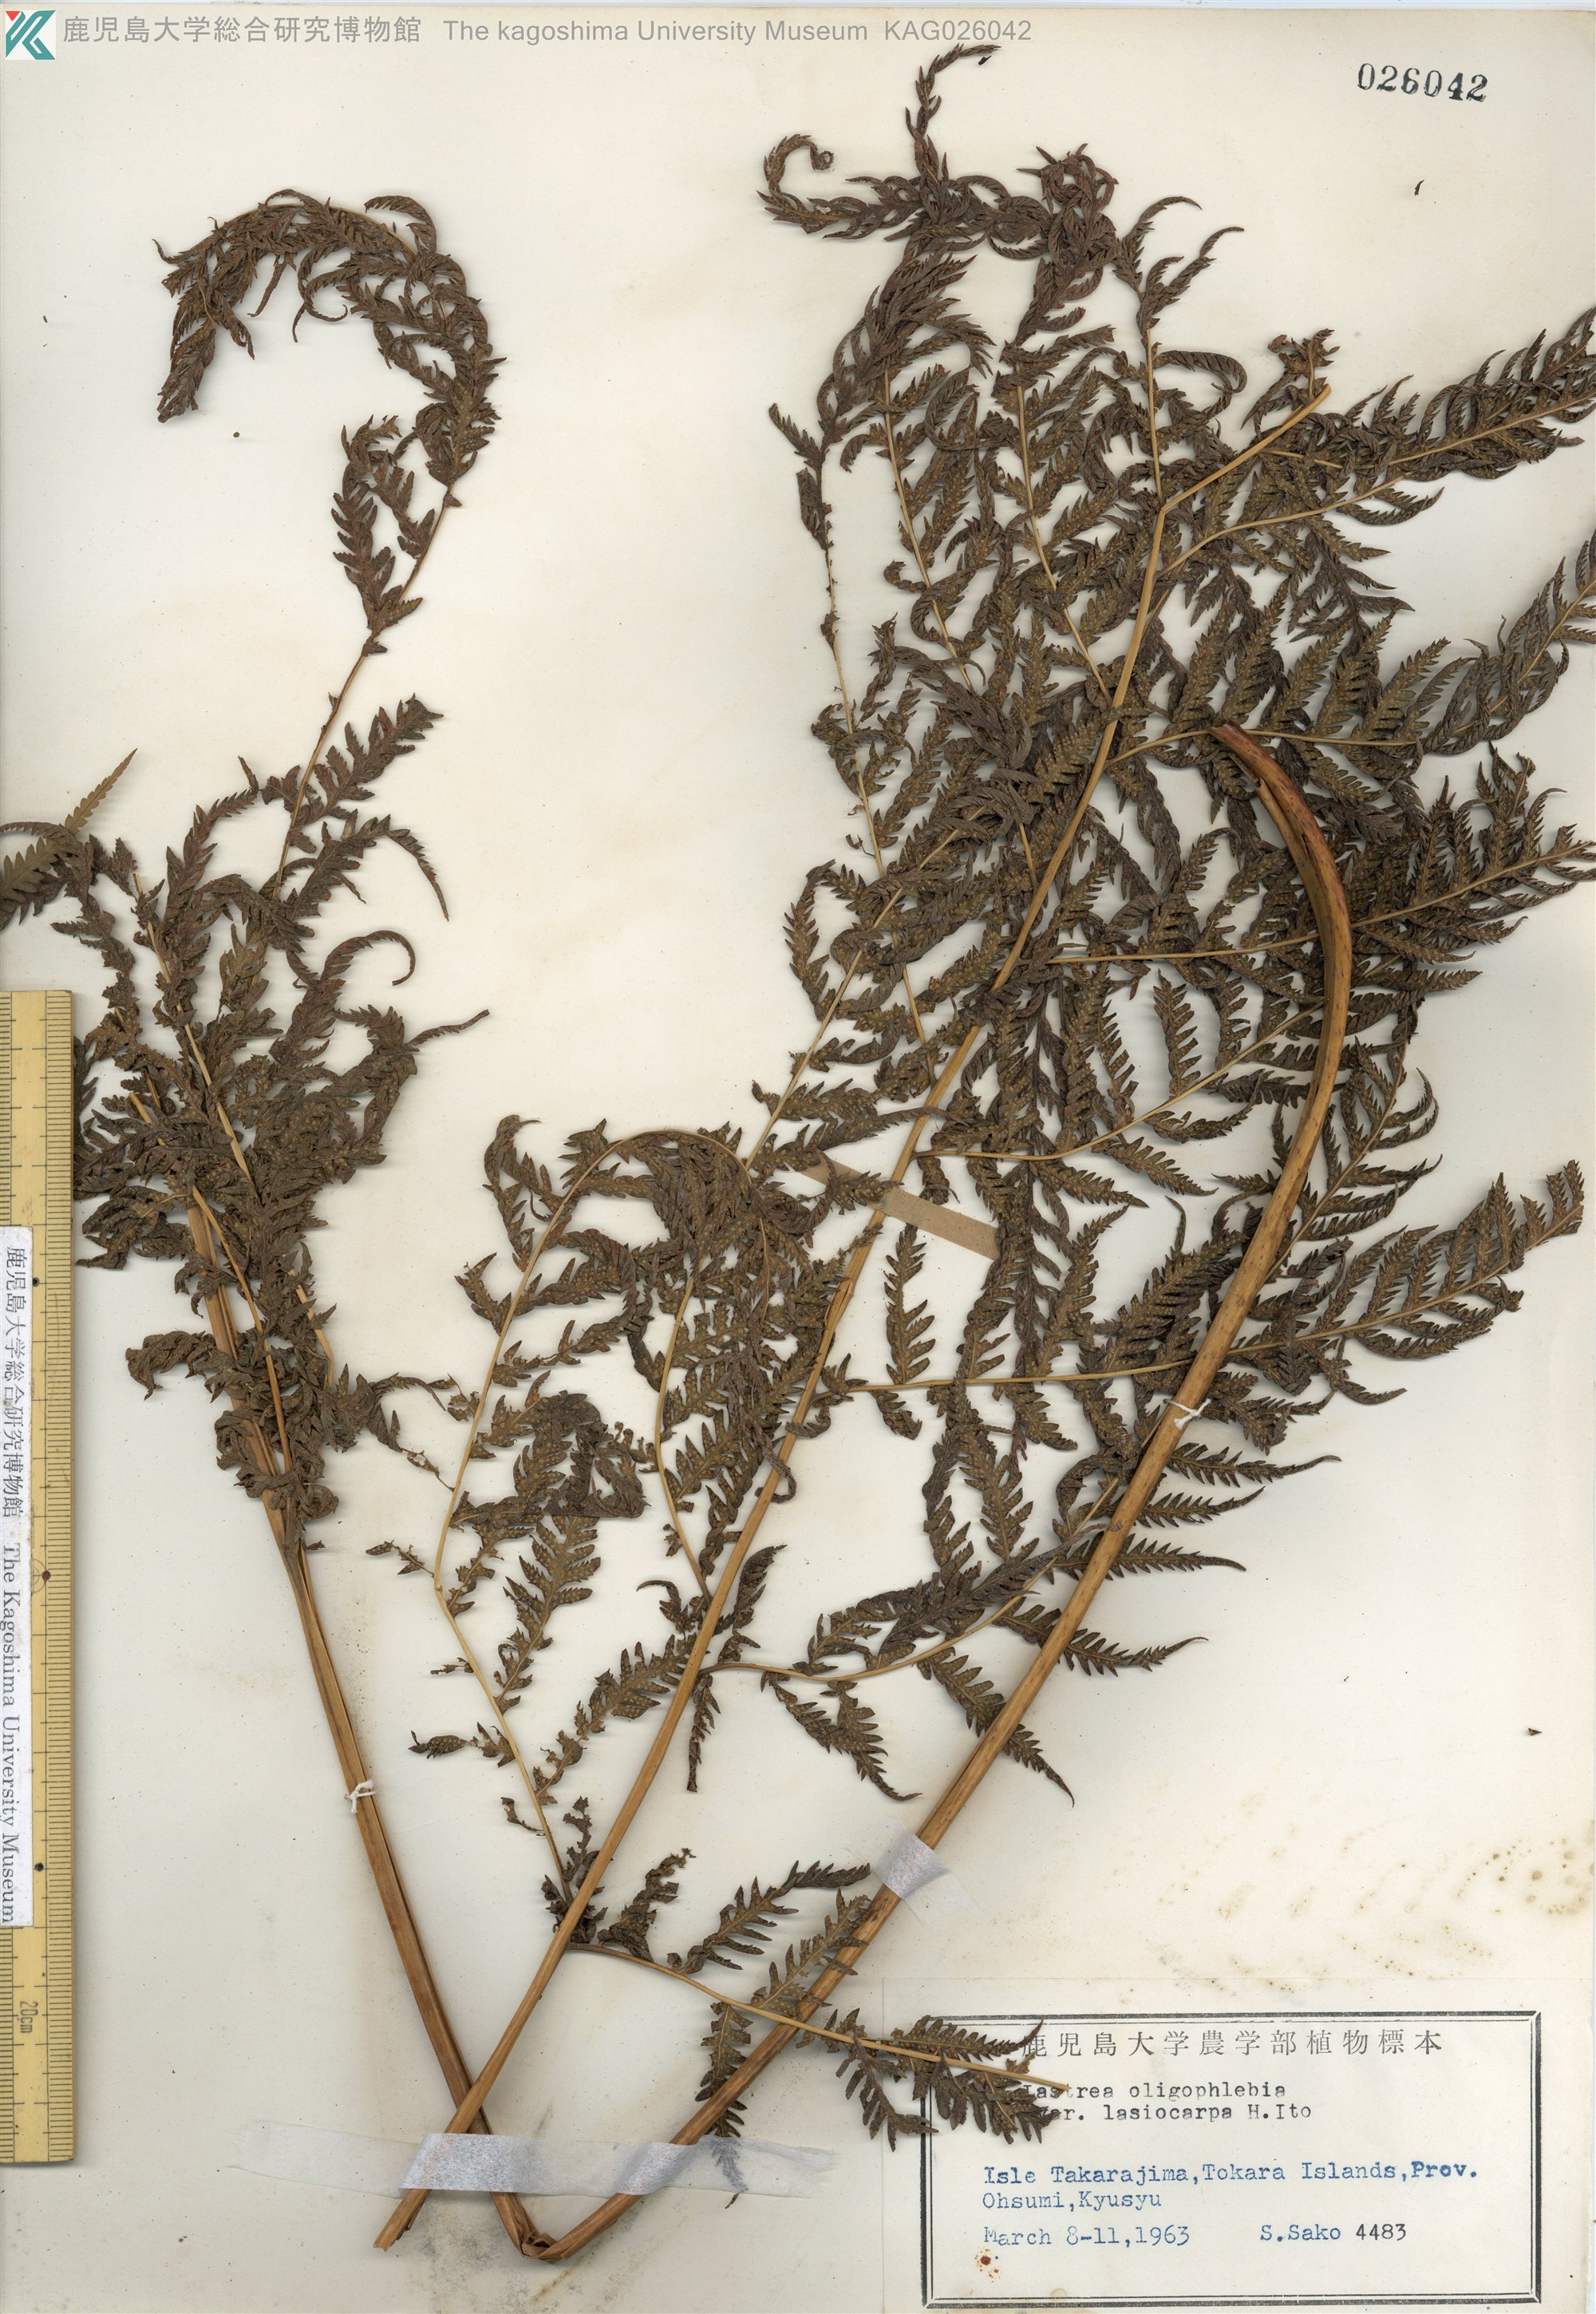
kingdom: Plantae
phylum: Tracheophyta
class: Polypodiopsida
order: Polypodiales
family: Thelypteridaceae
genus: Macrothelypteris
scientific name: Macrothelypteris oligophlebia
